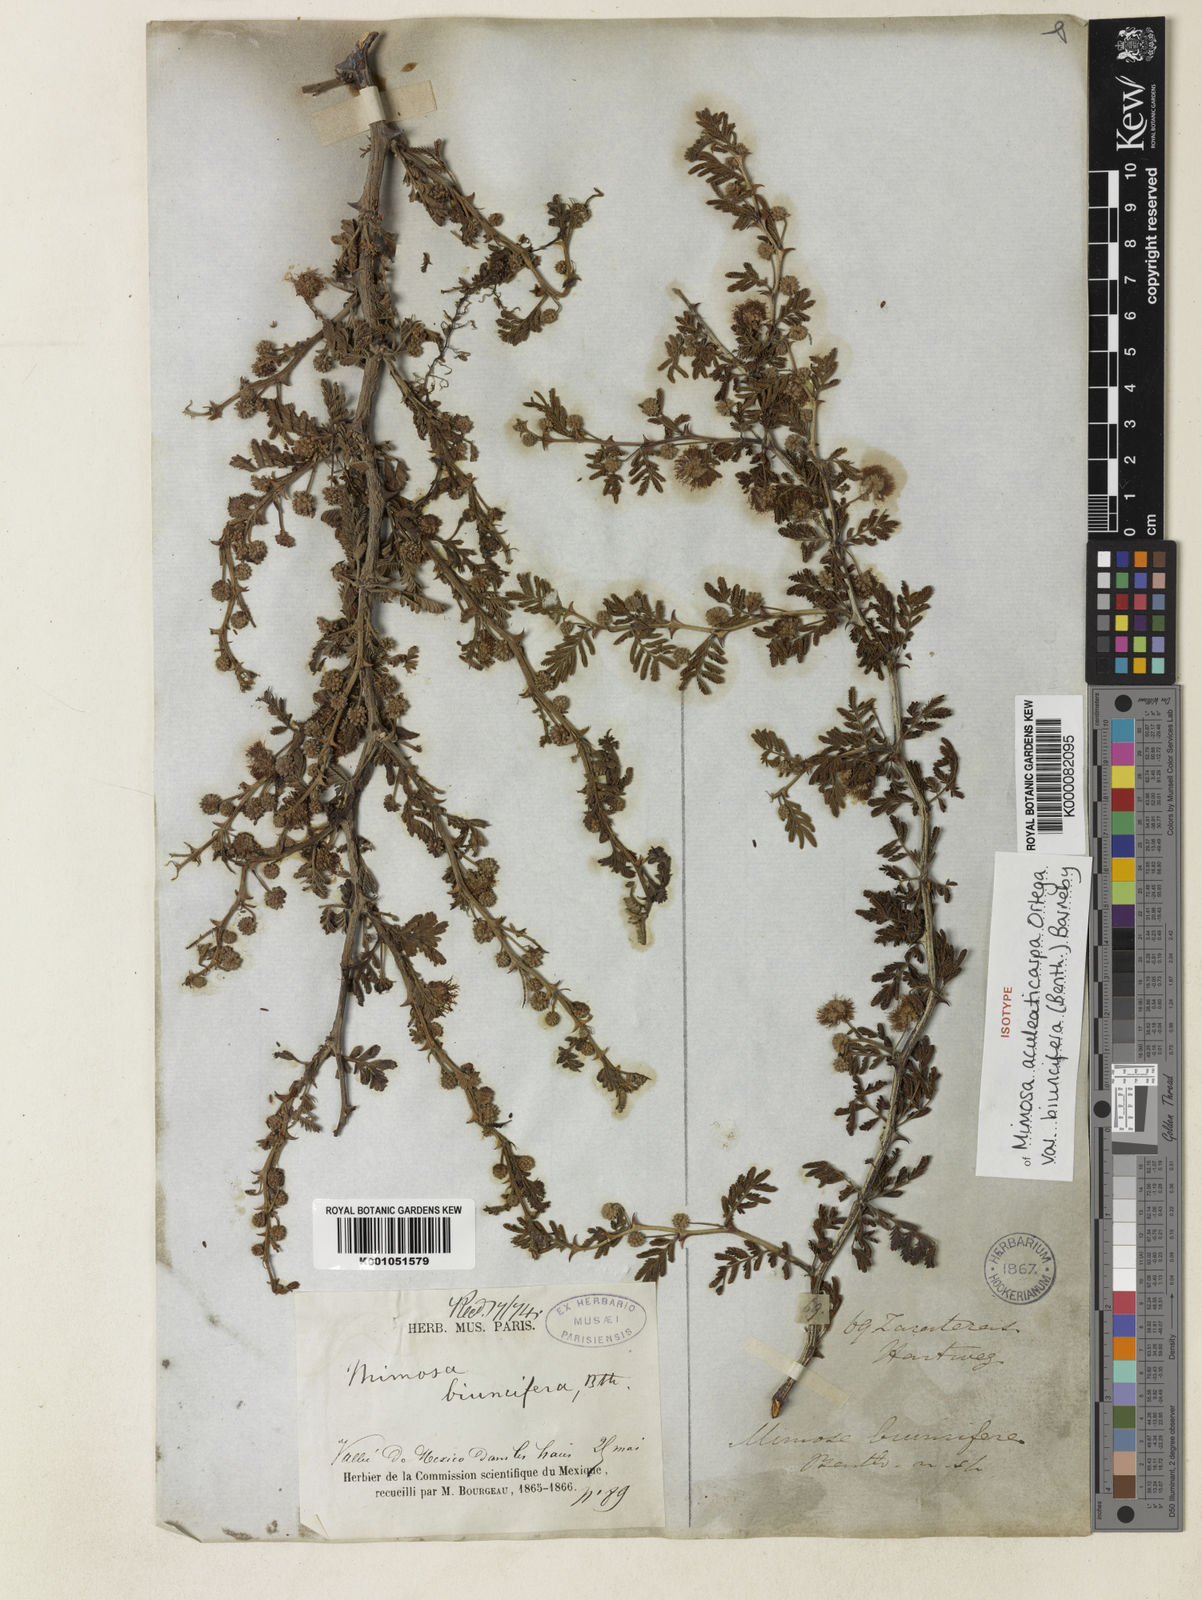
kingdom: Plantae
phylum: Tracheophyta
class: Magnoliopsida
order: Fabales
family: Fabaceae
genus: Mimosa
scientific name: Mimosa biuncifera
